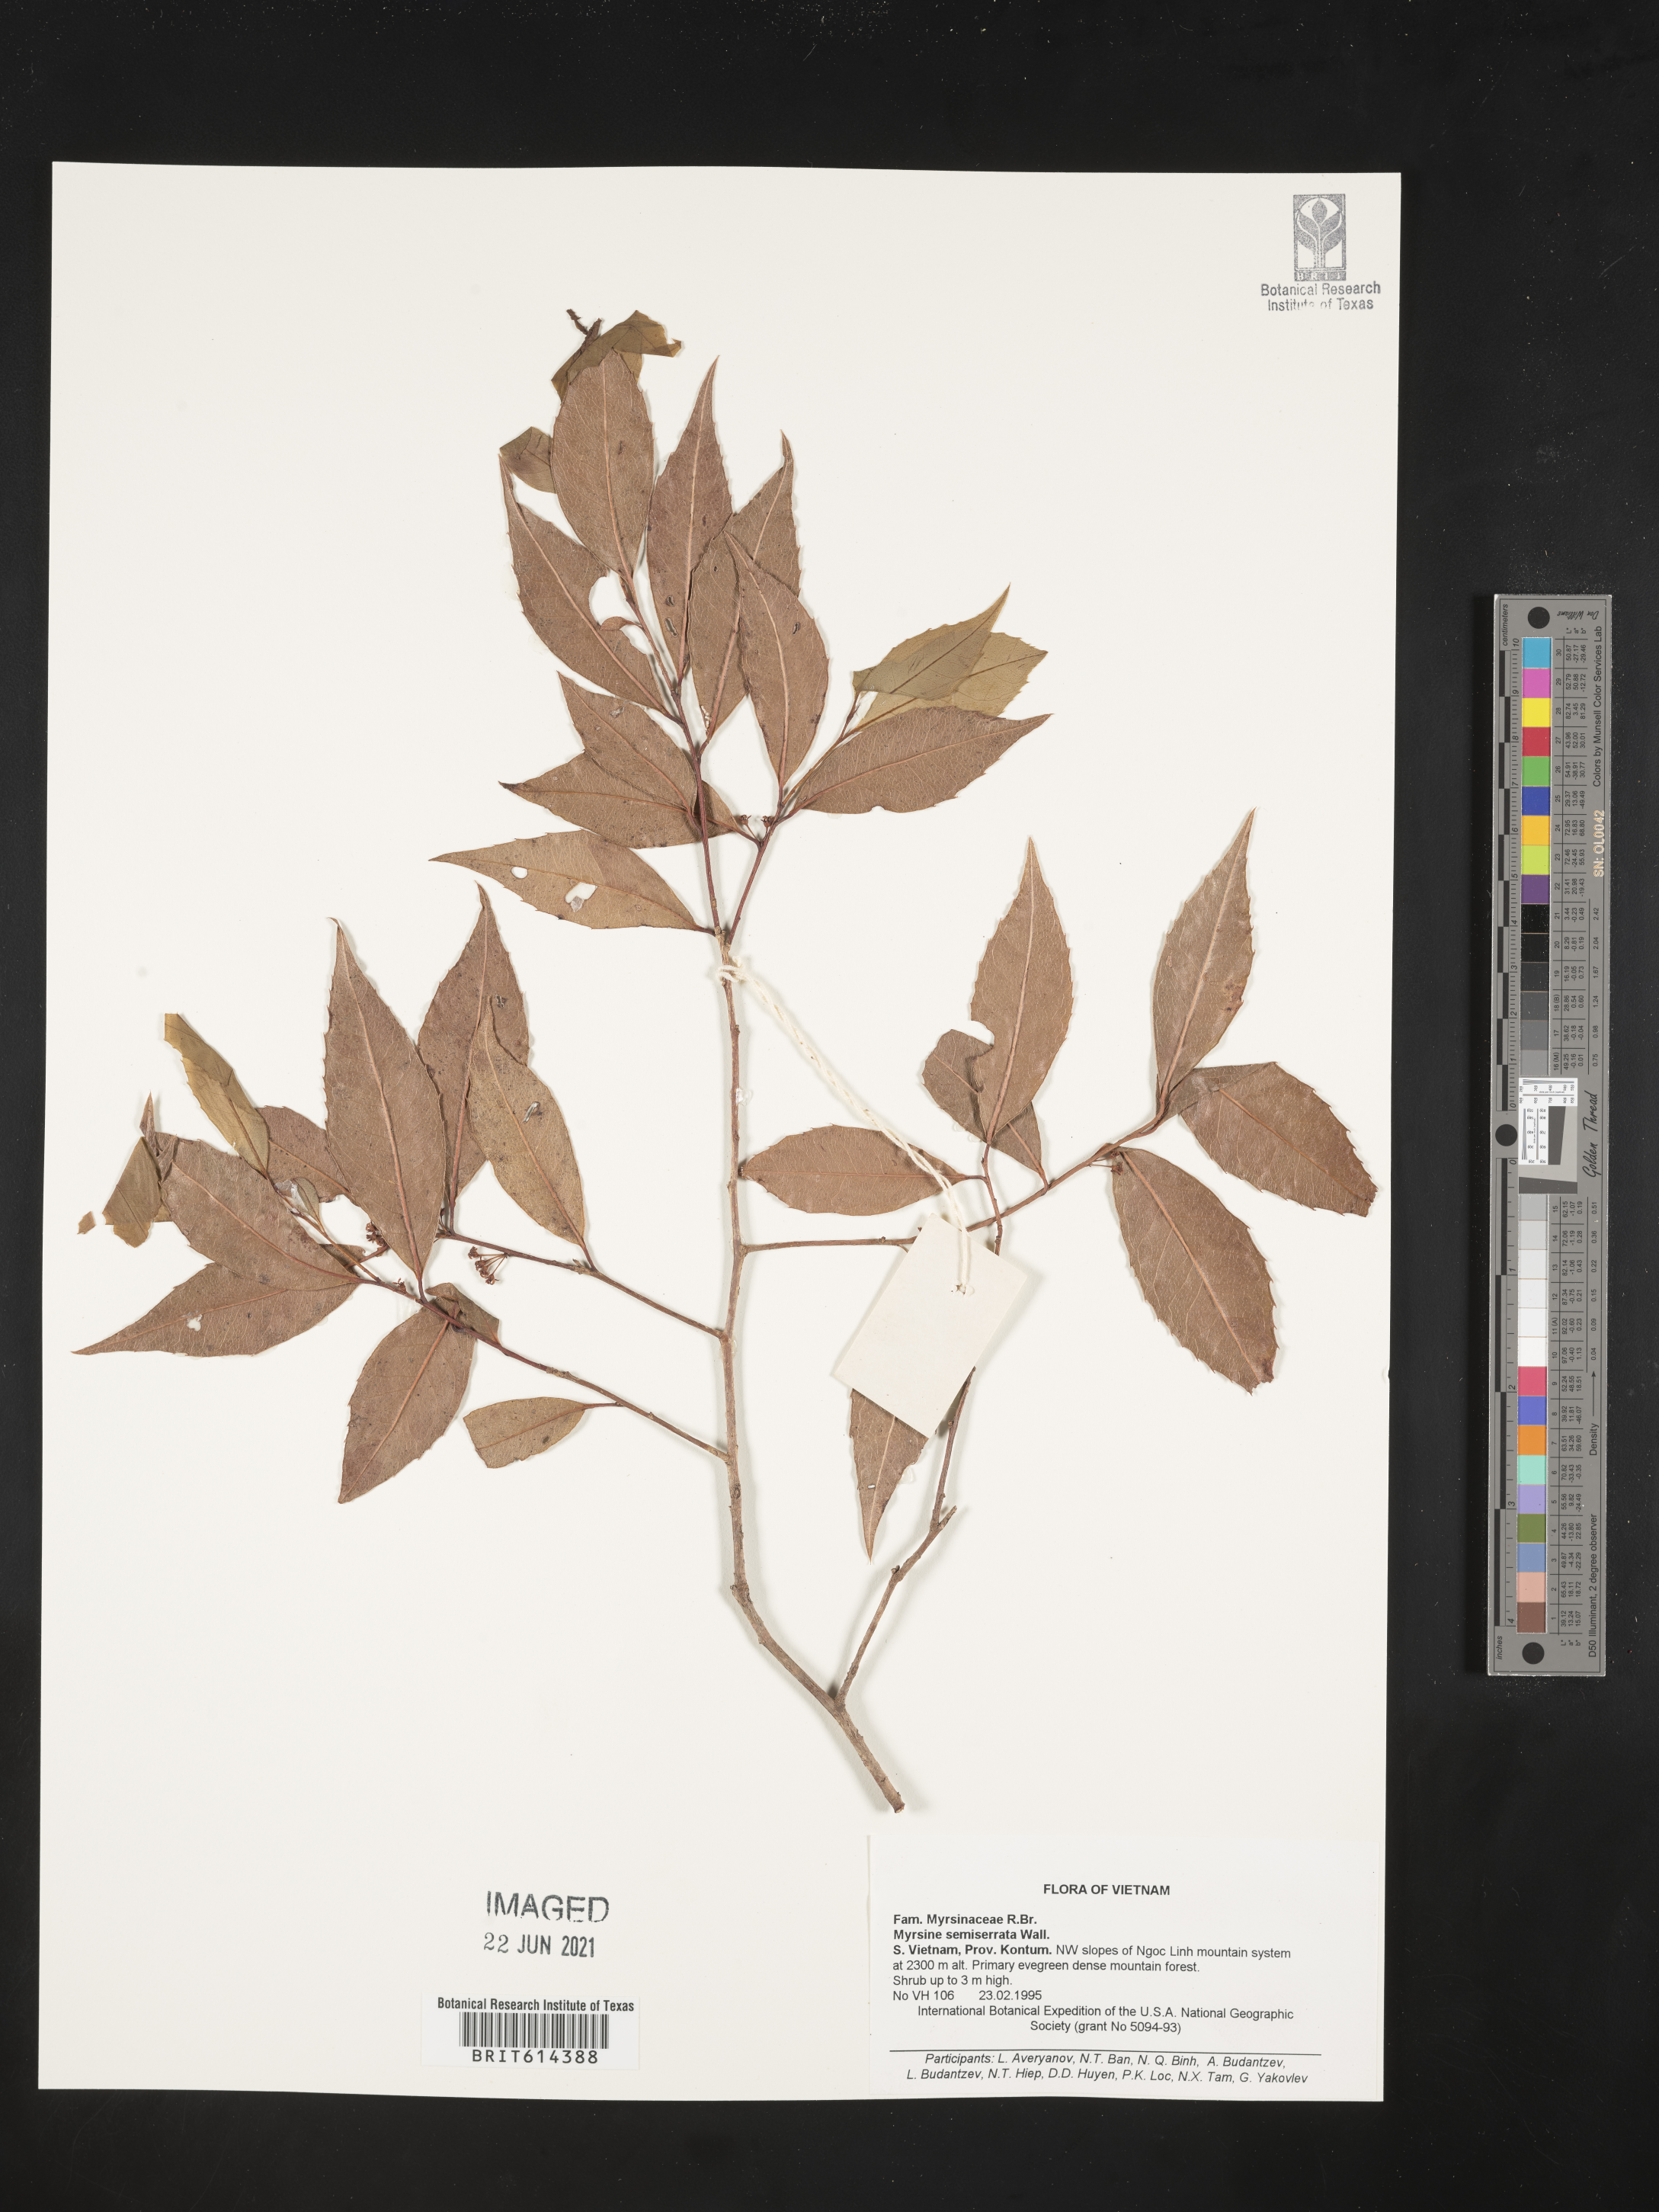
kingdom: Plantae
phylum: Tracheophyta
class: Magnoliopsida
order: Ericales
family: Primulaceae
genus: Myrsine
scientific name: Myrsine semiserrata
